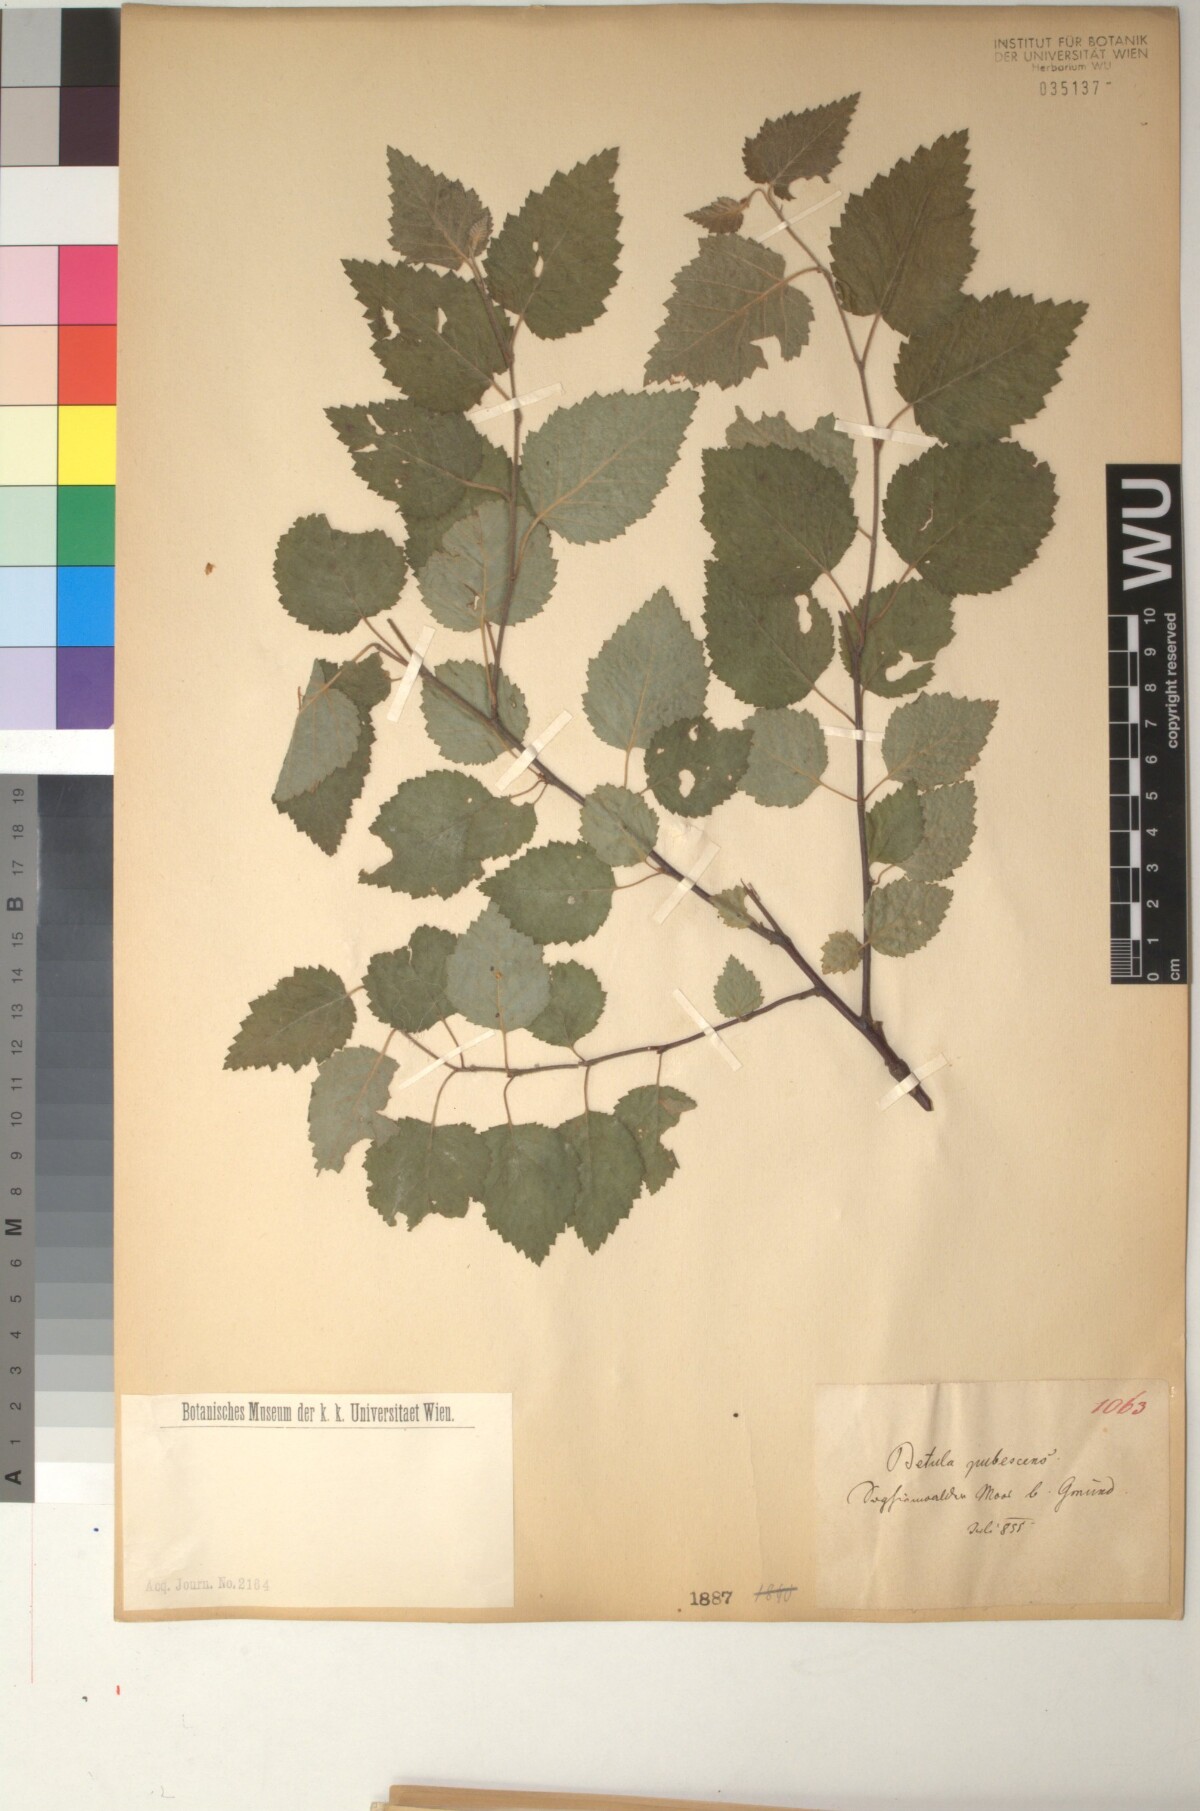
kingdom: Plantae
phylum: Tracheophyta
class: Magnoliopsida
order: Fagales
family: Betulaceae
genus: Betula
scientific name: Betula pubescens
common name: Downy birch
